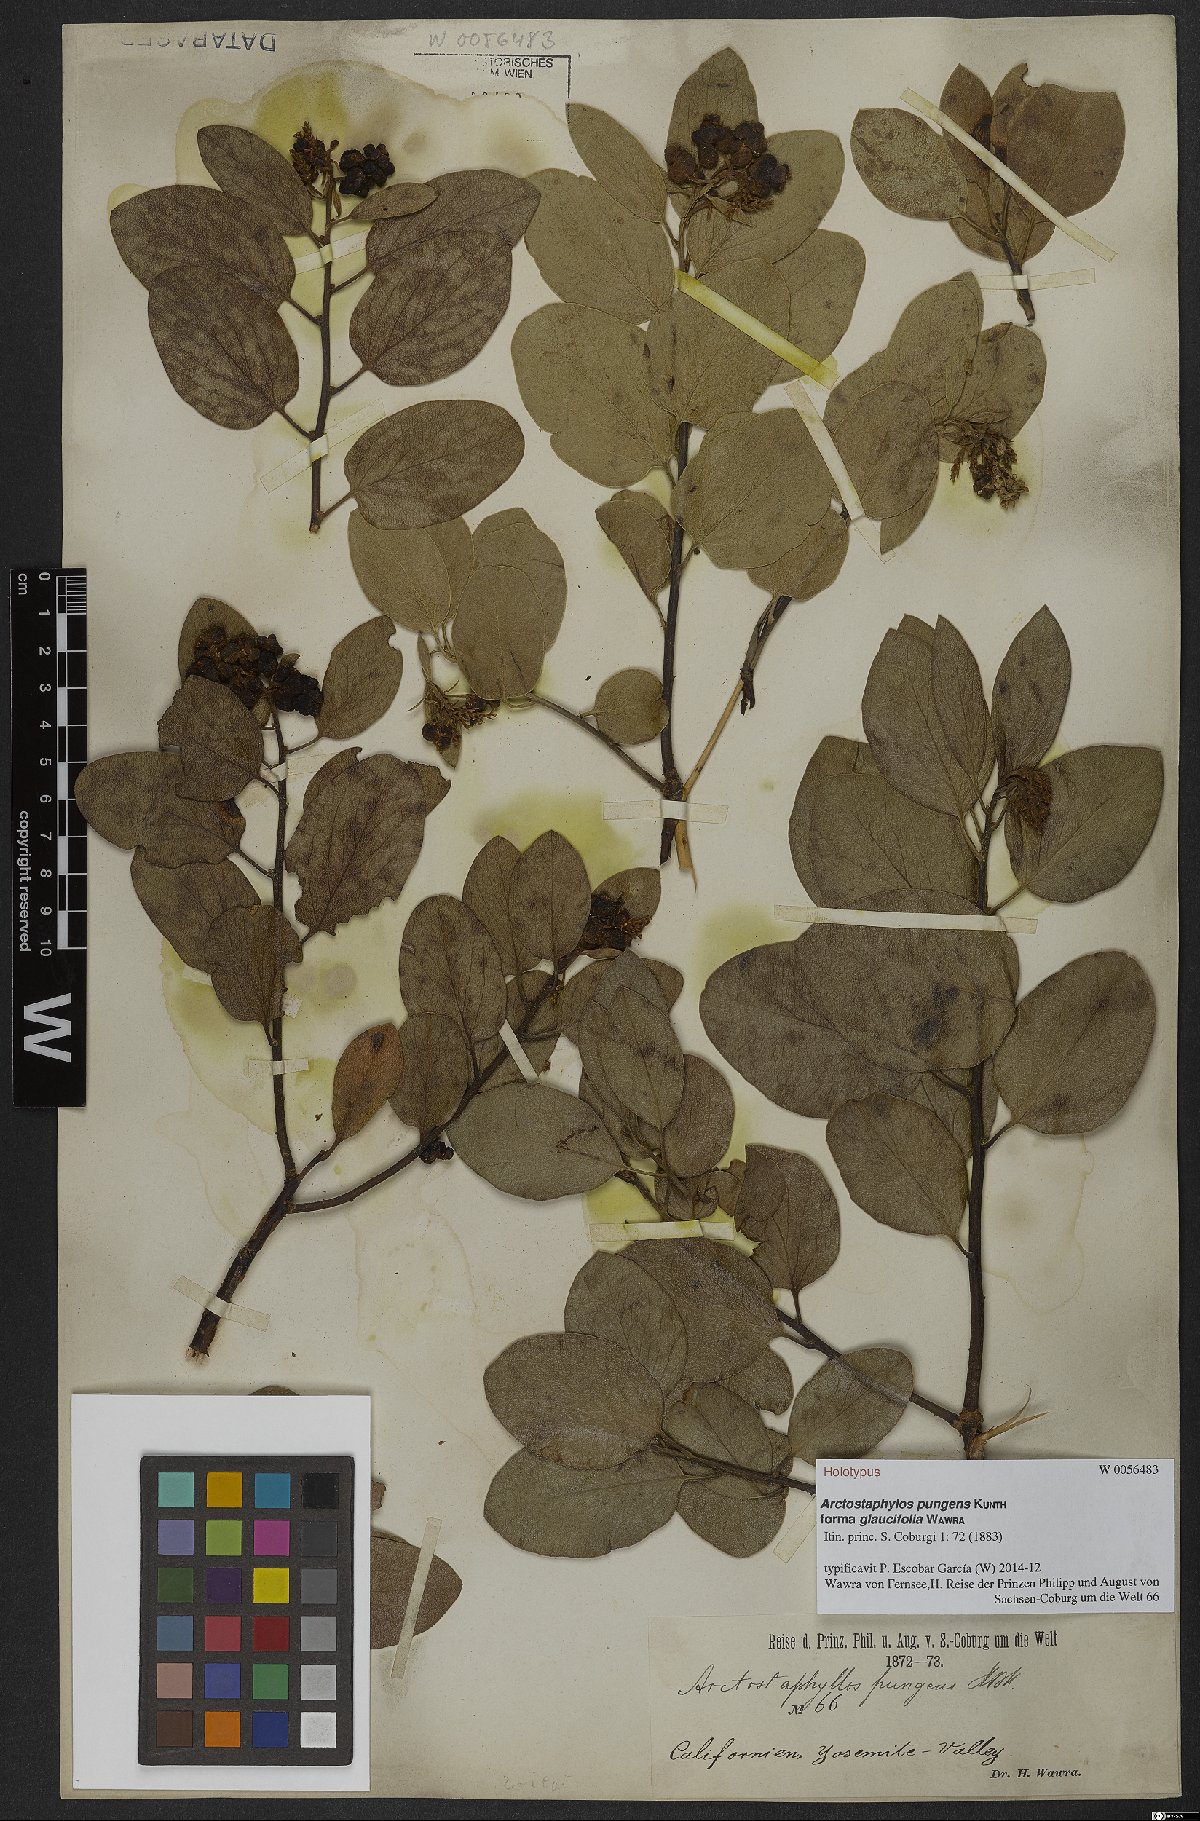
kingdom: Plantae
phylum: Tracheophyta
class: Magnoliopsida
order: Ericales
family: Ericaceae
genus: Arctostaphylos
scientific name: Arctostaphylos pungens
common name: Mexican manzanita
